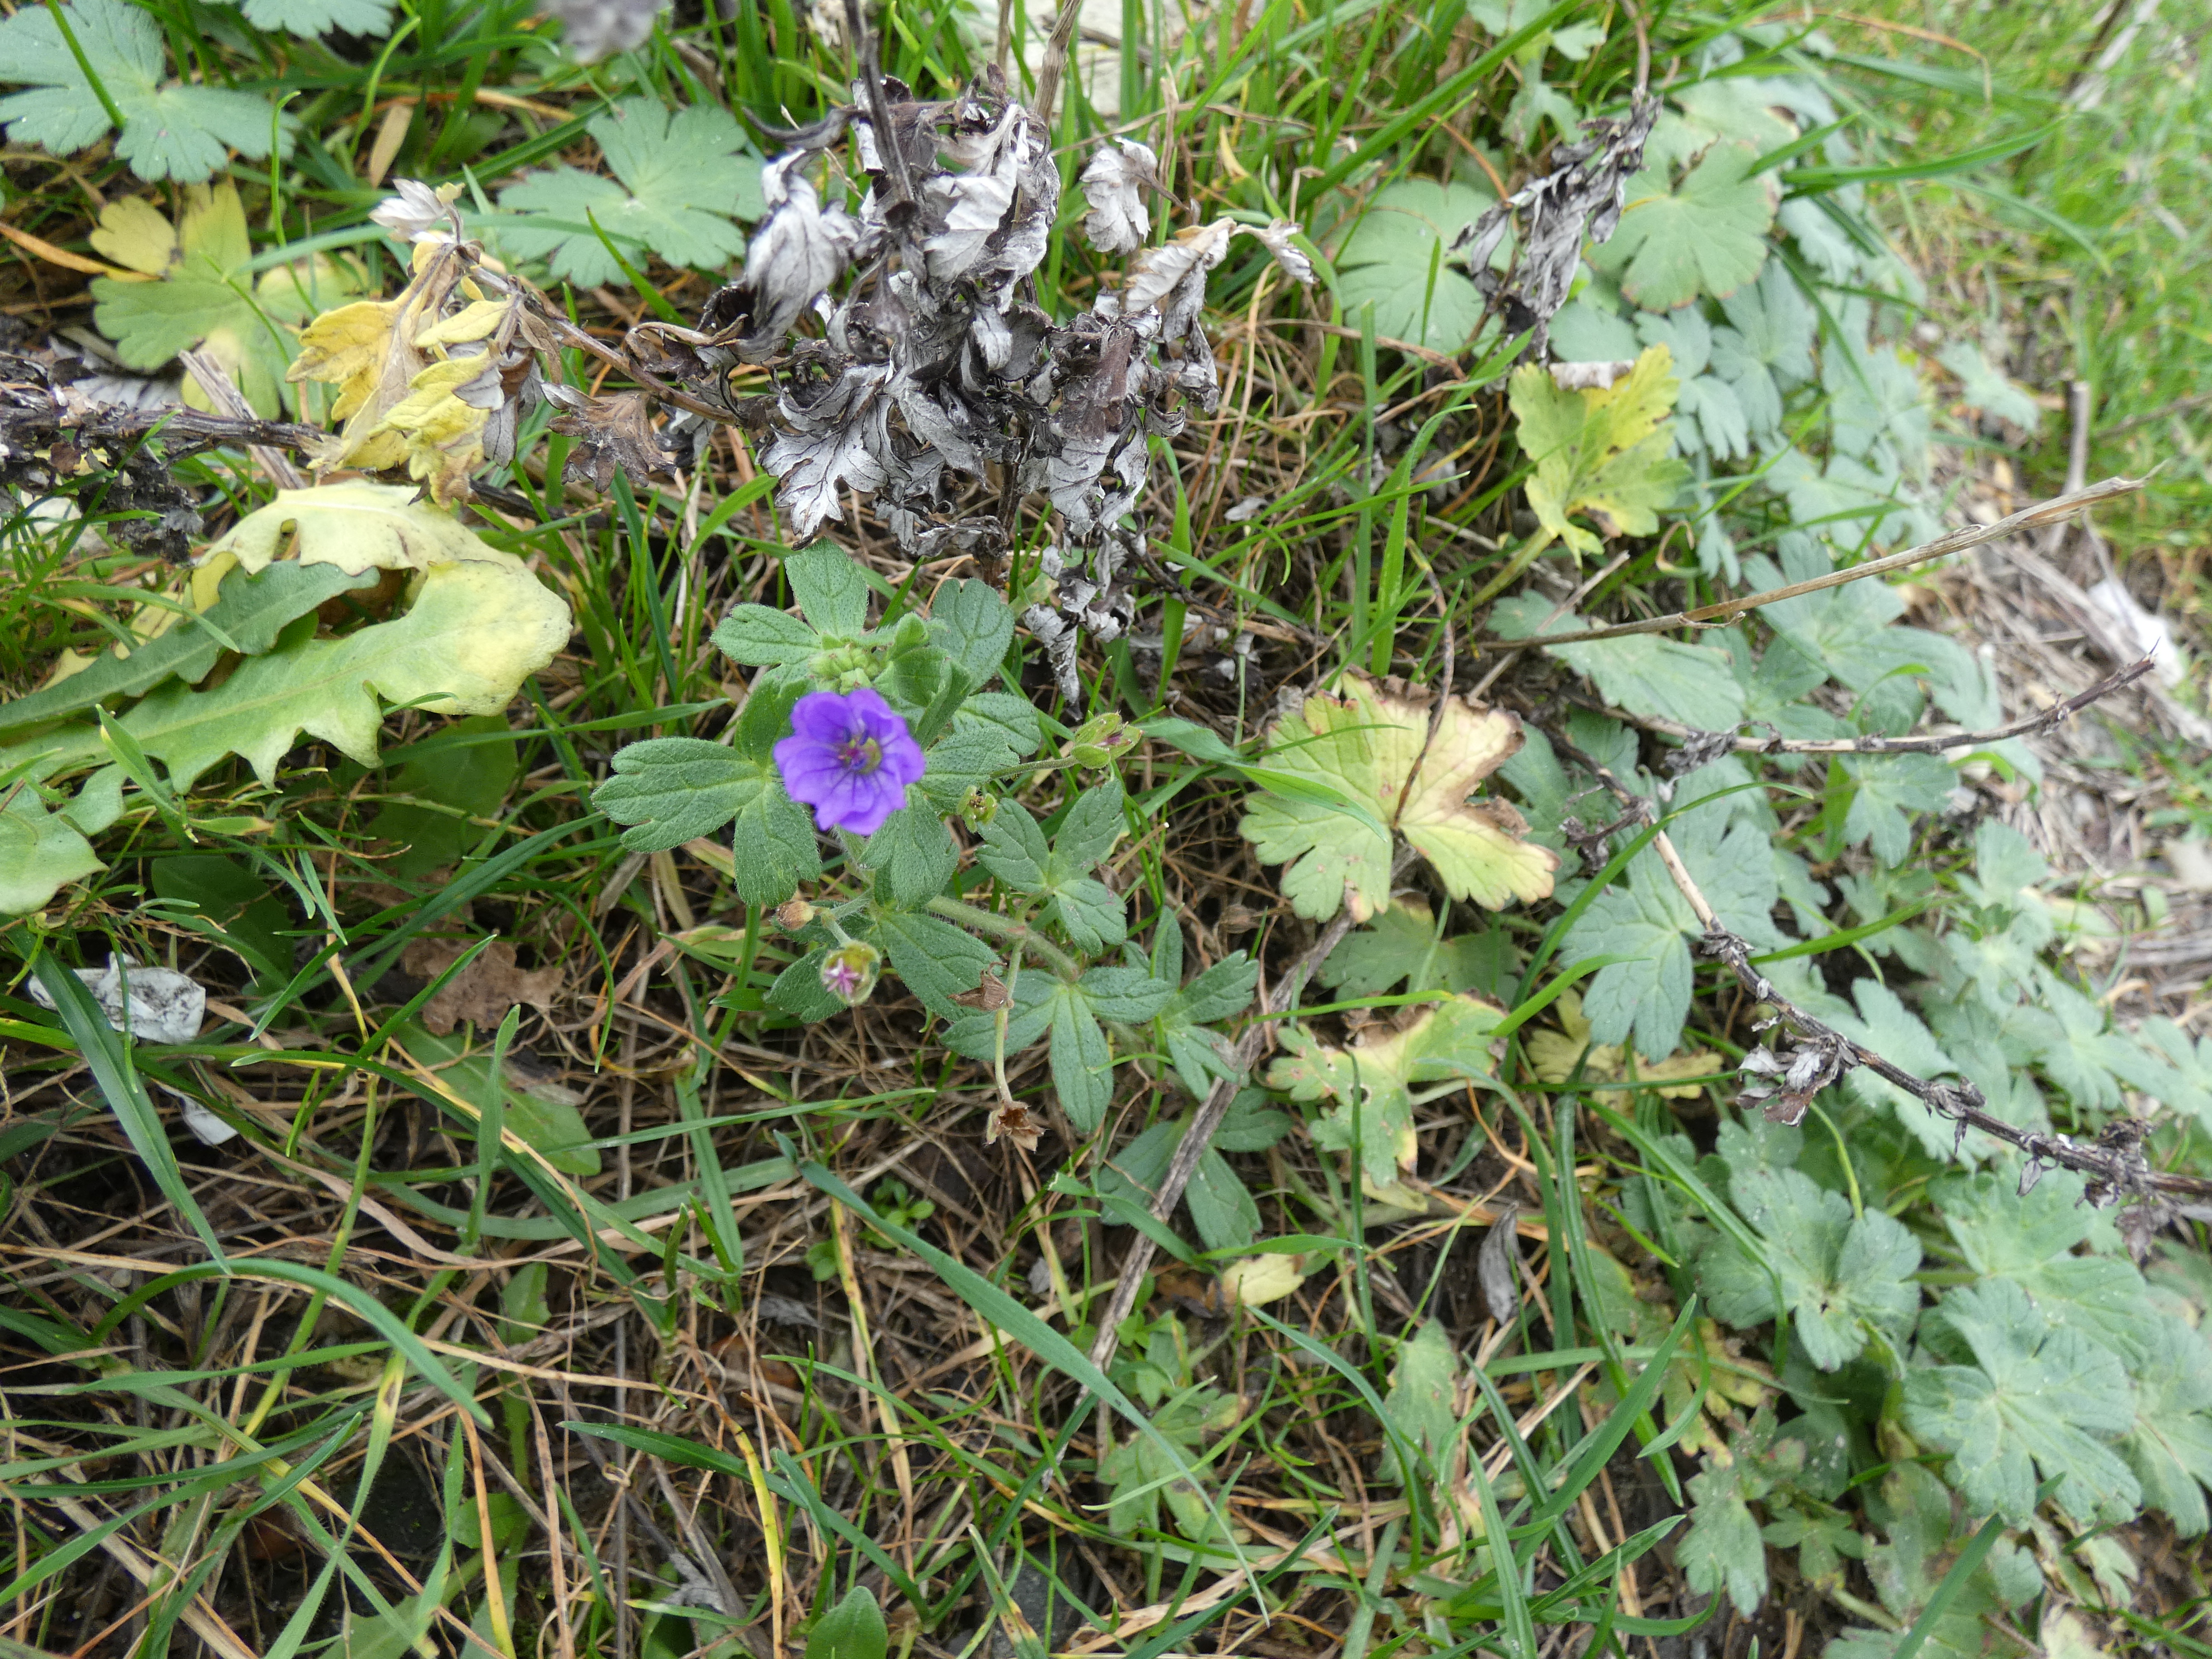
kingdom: Plantae
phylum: Tracheophyta
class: Magnoliopsida
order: Geraniales
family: Geraniaceae
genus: Geranium
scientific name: Geranium pyrenaicum
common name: Pyrenæisk storkenæb
